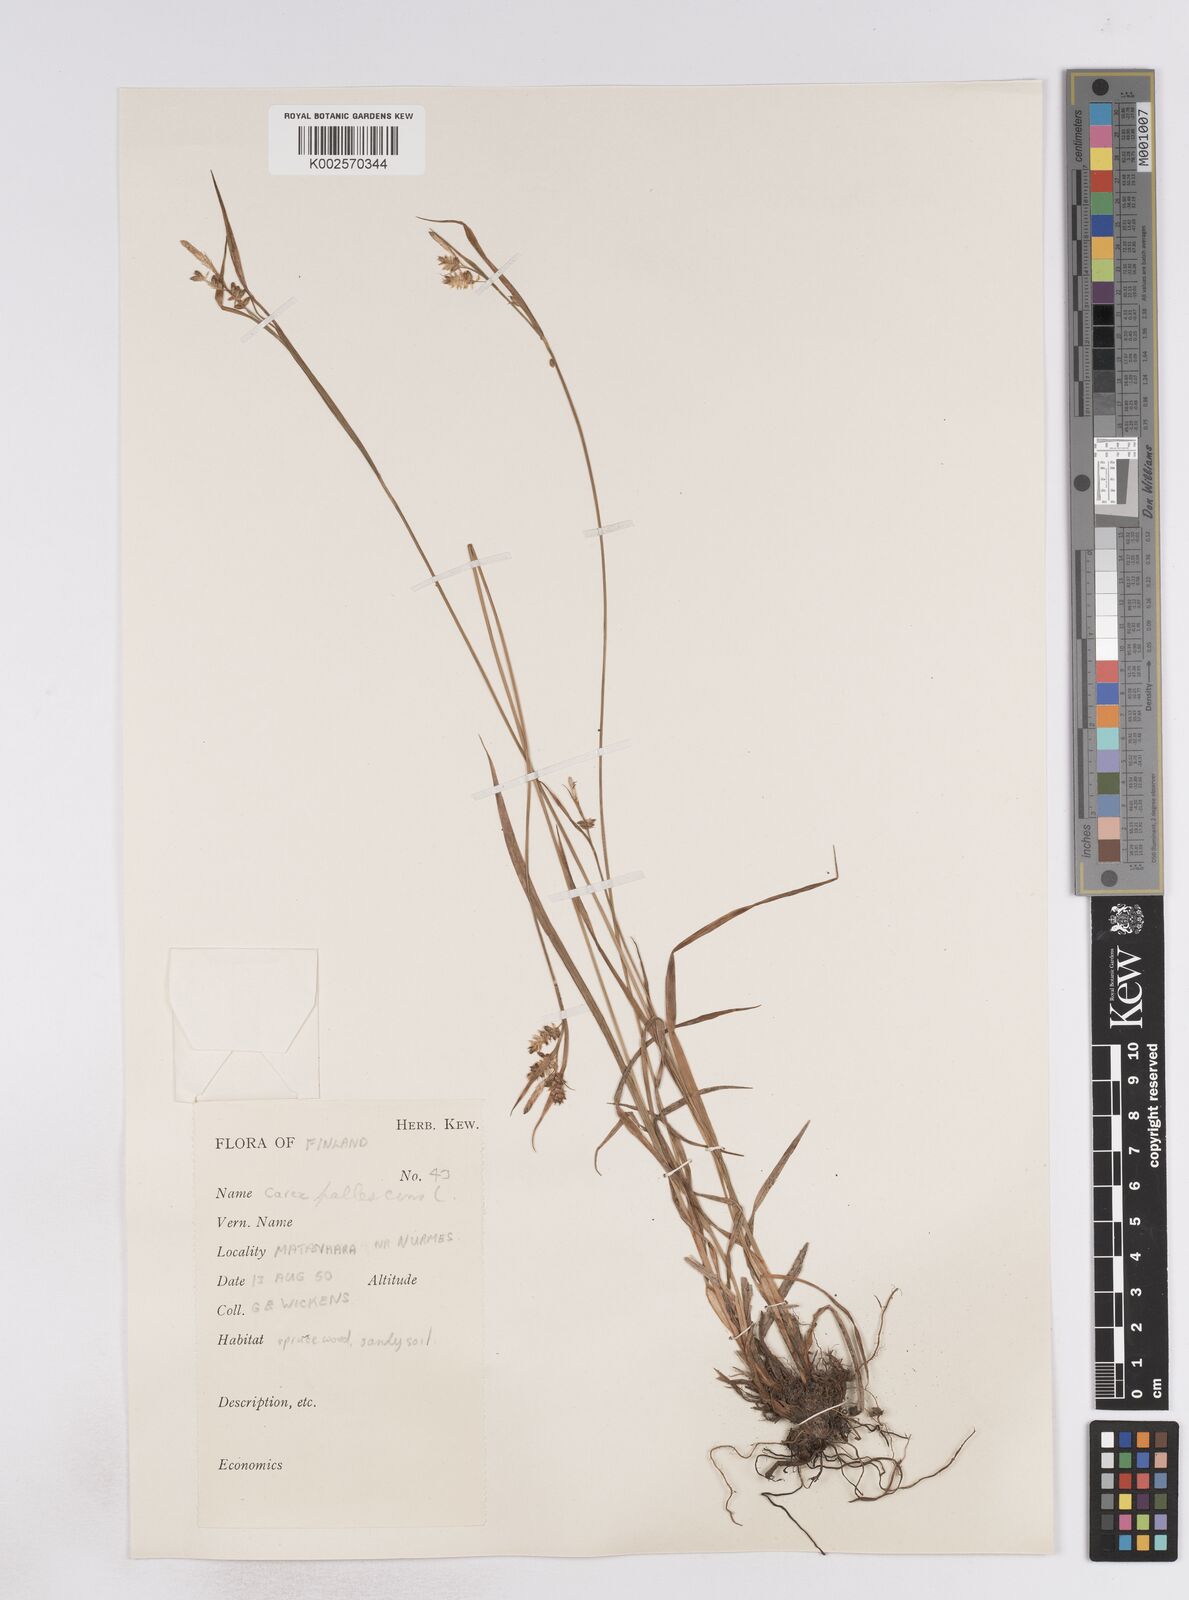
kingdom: Plantae
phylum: Tracheophyta
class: Liliopsida
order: Poales
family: Cyperaceae
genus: Carex
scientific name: Carex pallescens
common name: Pale sedge
